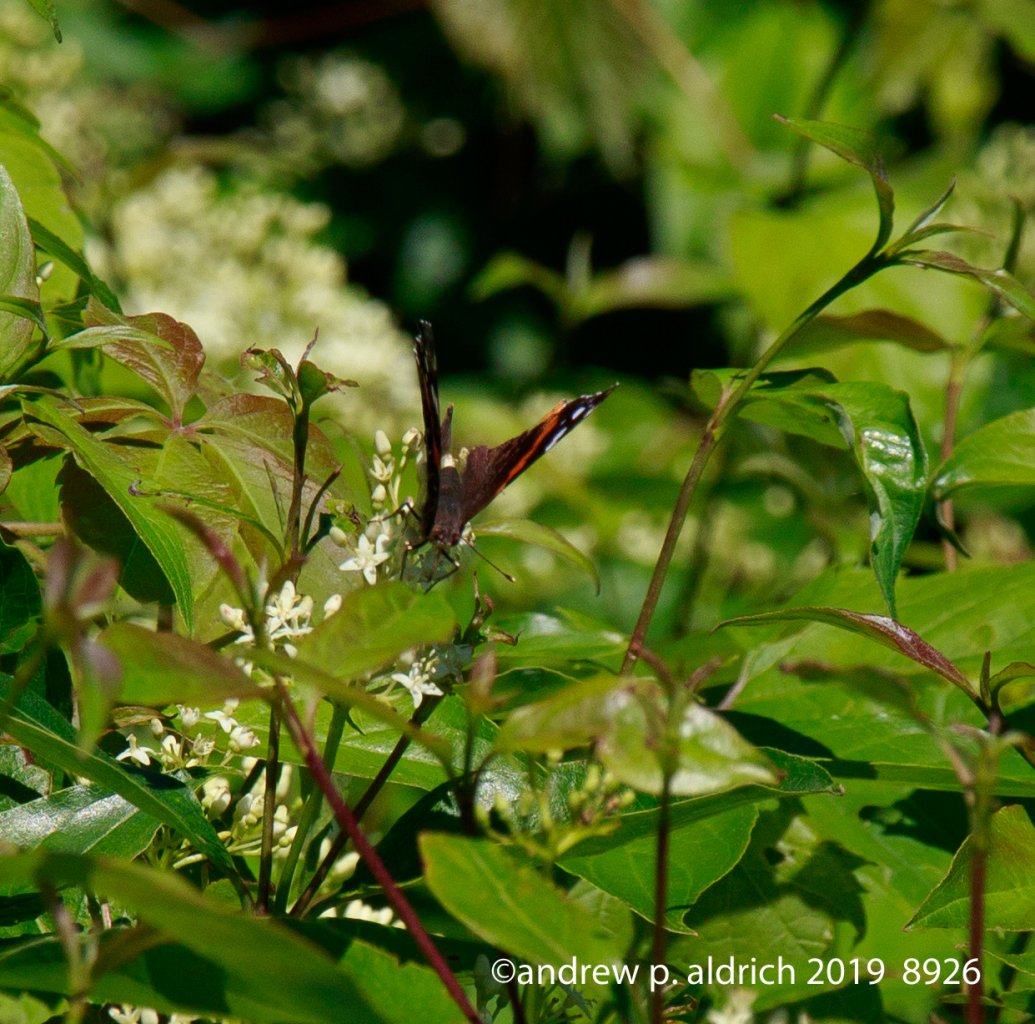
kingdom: Animalia
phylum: Arthropoda
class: Insecta
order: Lepidoptera
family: Nymphalidae
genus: Vanessa
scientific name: Vanessa atalanta
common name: Red Admiral
